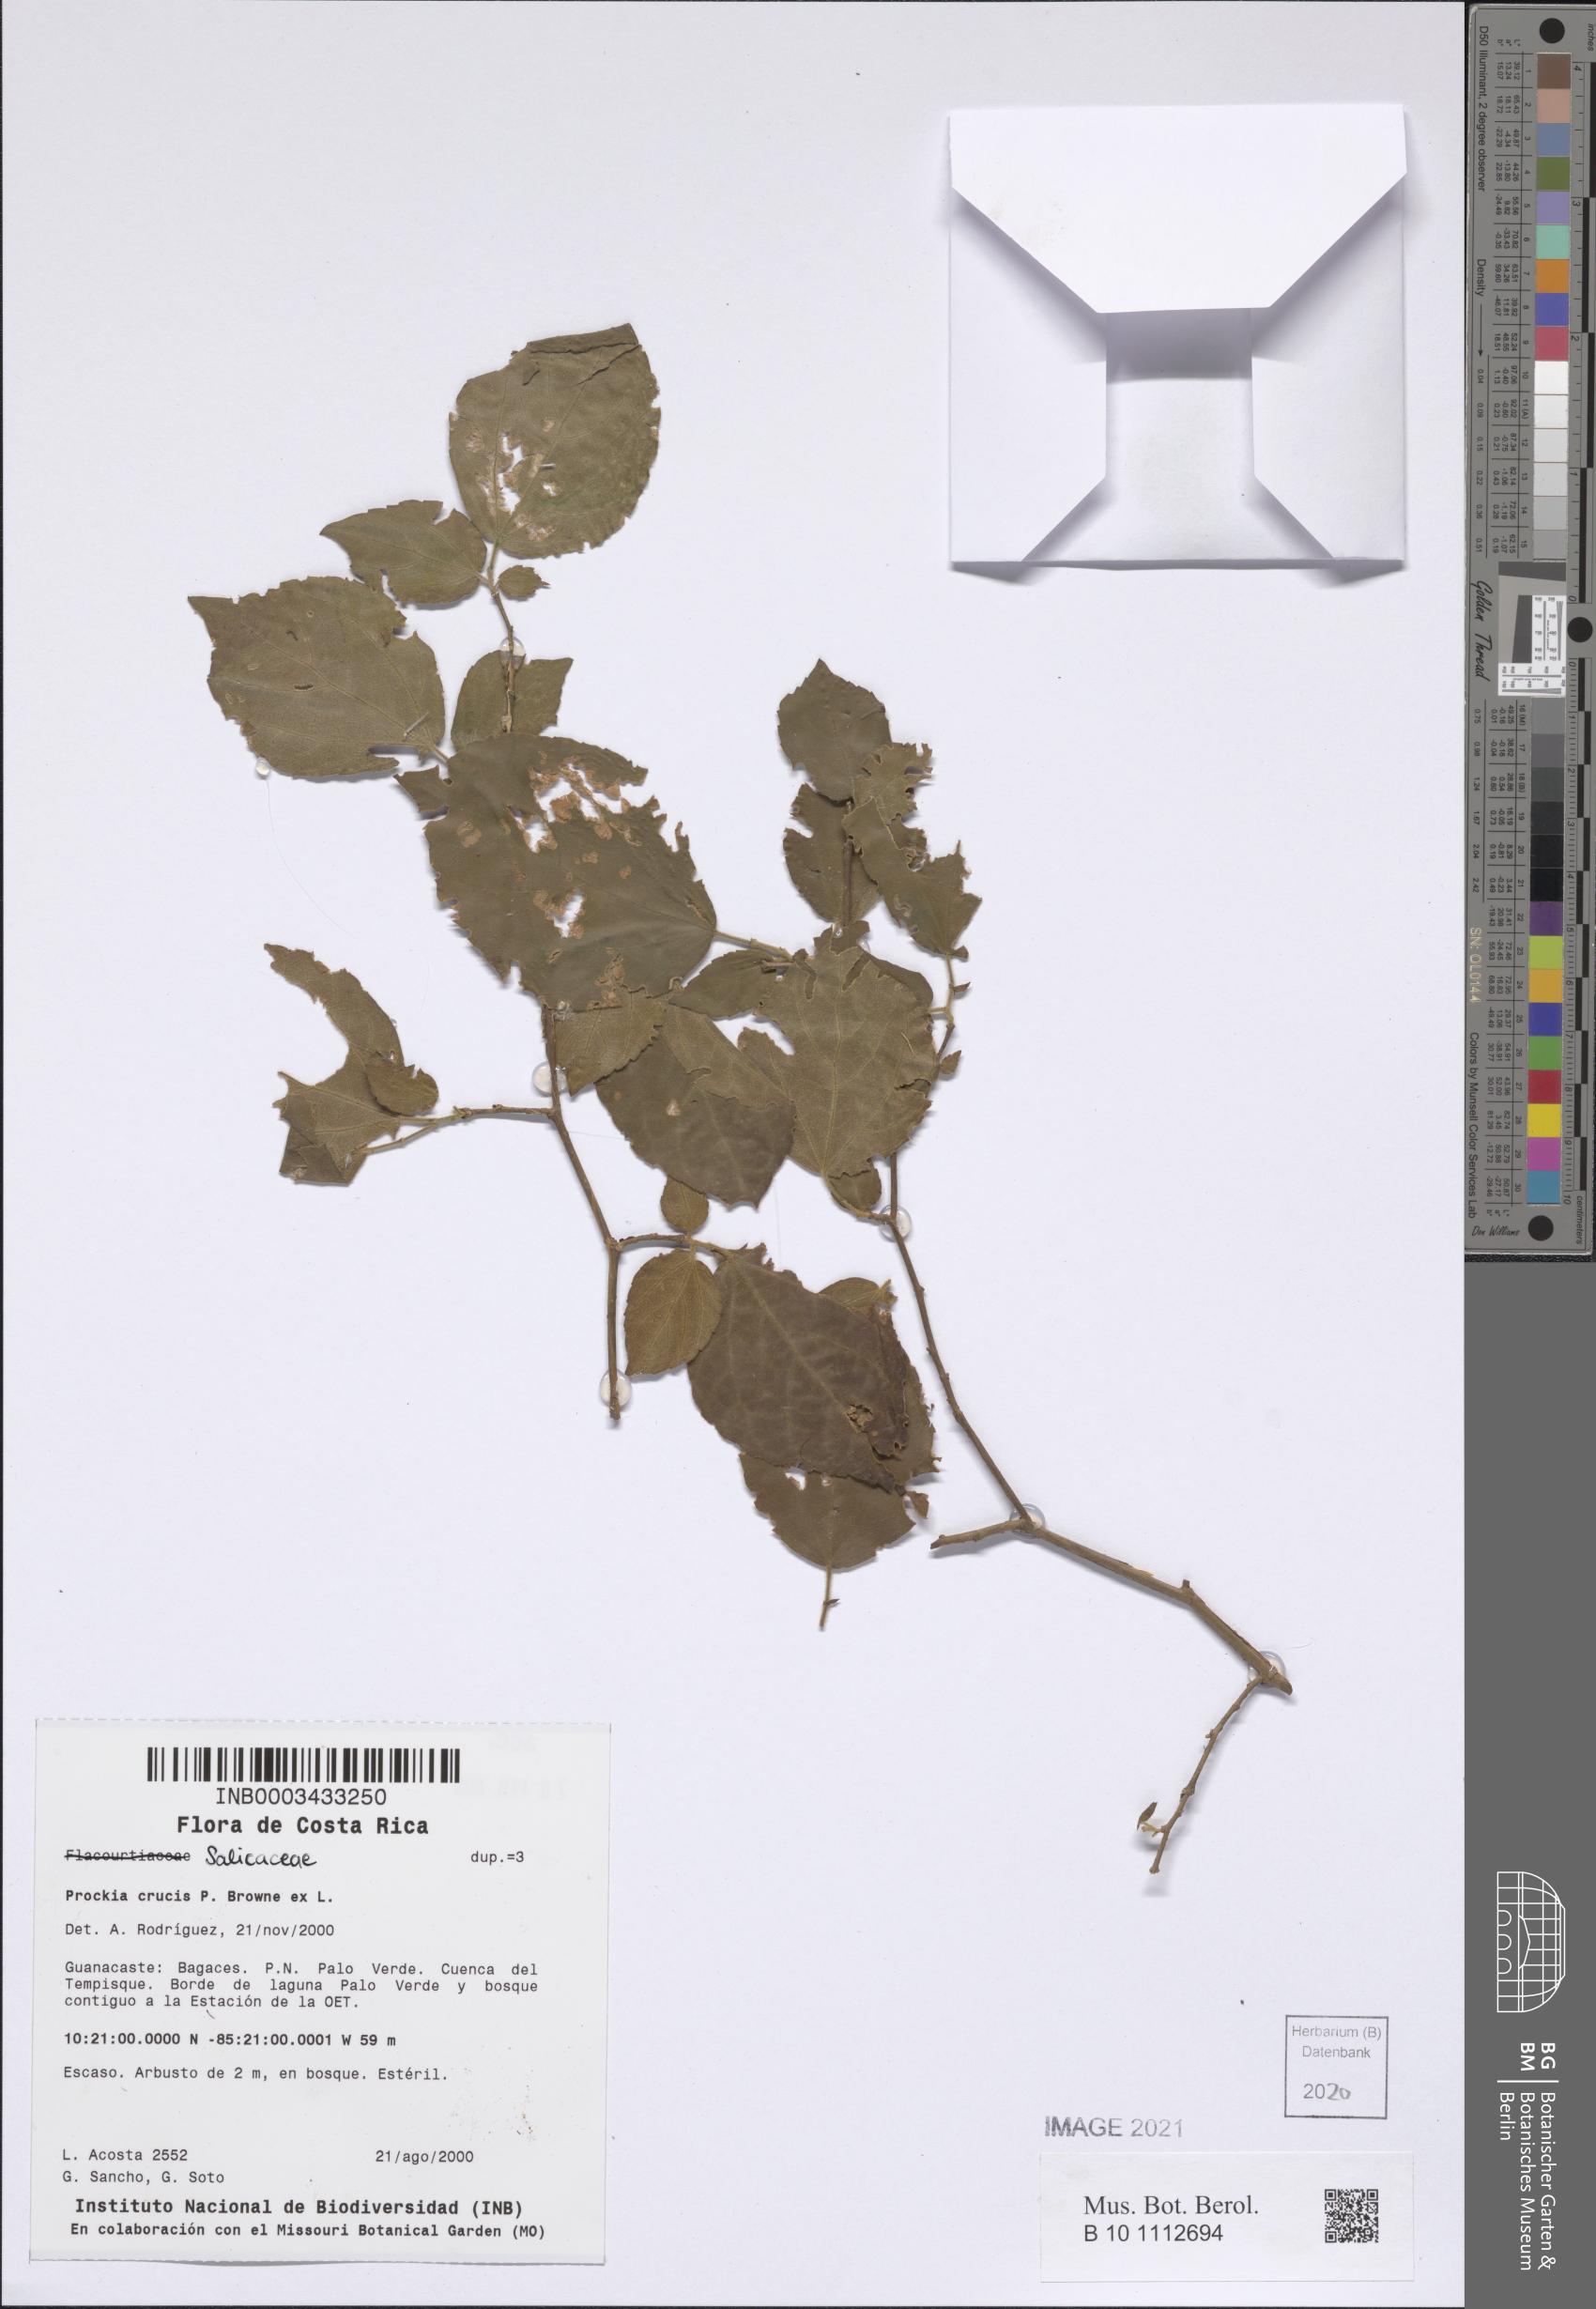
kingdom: Plantae
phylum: Tracheophyta
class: Magnoliopsida
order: Malpighiales
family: Salicaceae
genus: Prockia
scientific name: Prockia crucis
